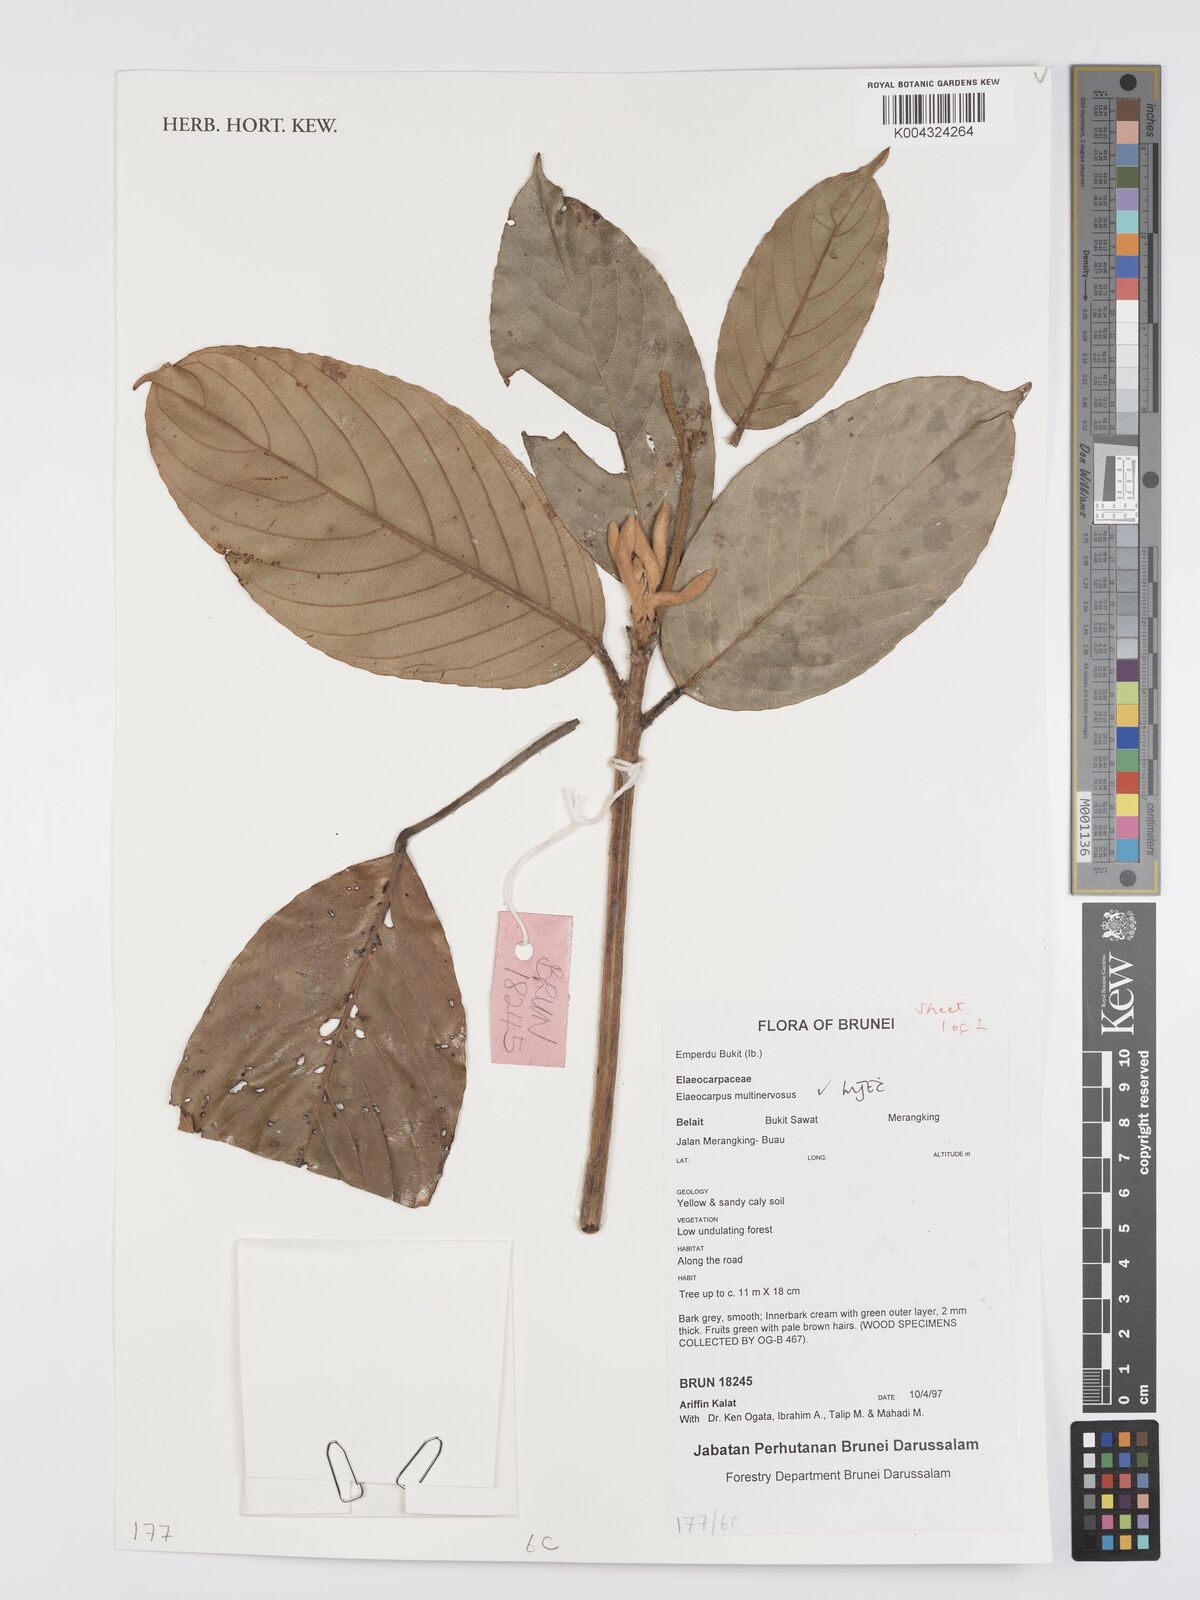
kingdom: Plantae
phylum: Tracheophyta
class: Magnoliopsida
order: Oxalidales
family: Elaeocarpaceae
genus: Elaeocarpus
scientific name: Elaeocarpus multinervosus
